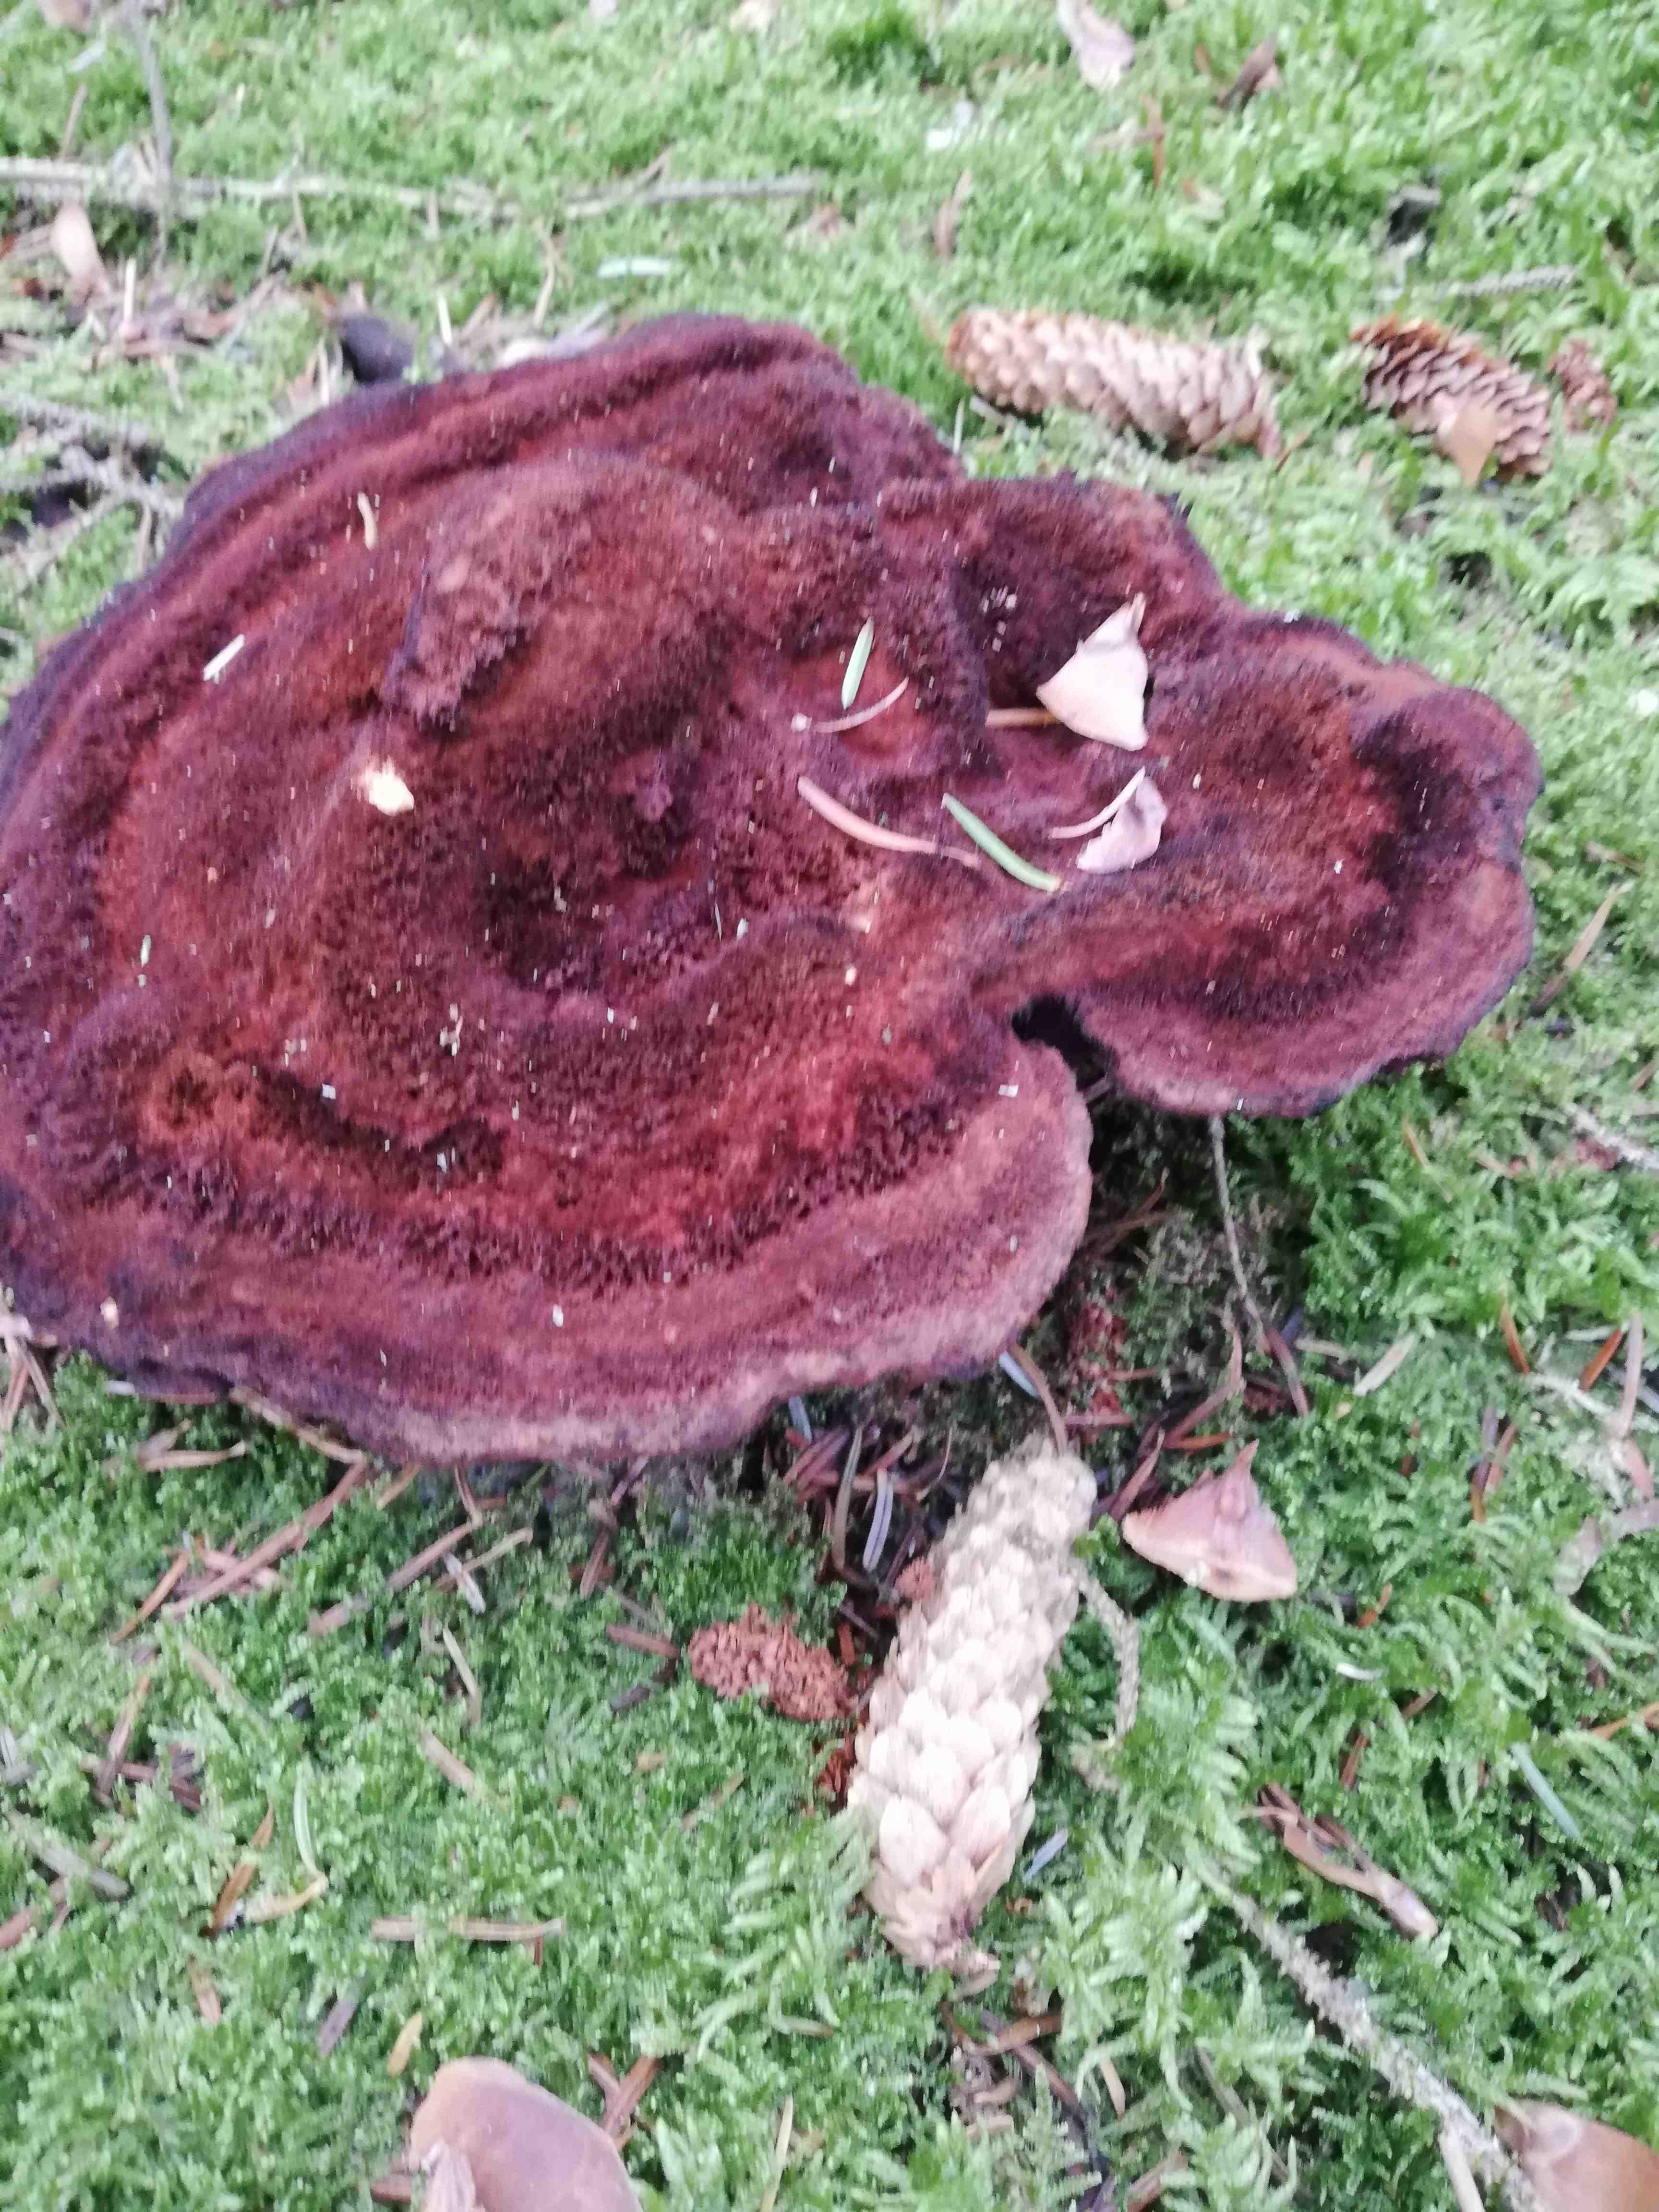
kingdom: Fungi
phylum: Basidiomycota
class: Agaricomycetes
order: Polyporales
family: Laetiporaceae
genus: Phaeolus
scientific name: Phaeolus schweinitzii
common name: brunporesvamp
